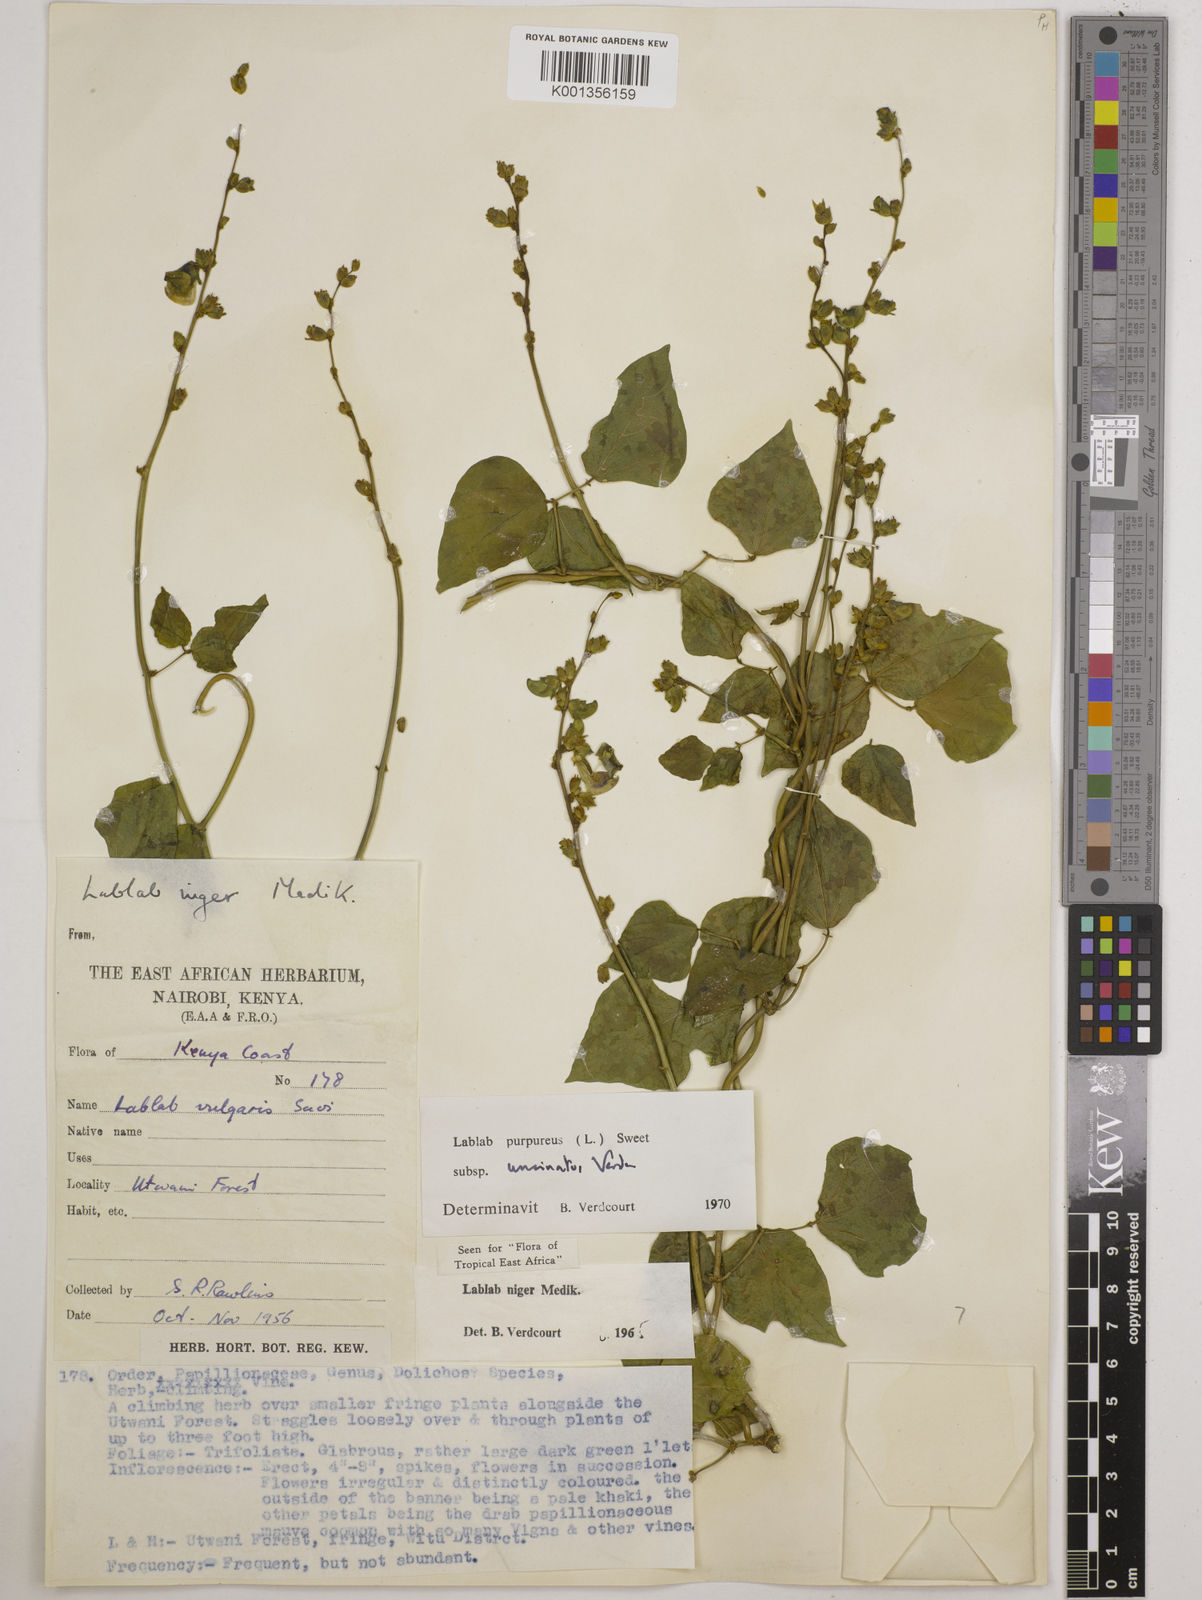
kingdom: Plantae
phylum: Tracheophyta
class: Magnoliopsida
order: Fabales
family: Fabaceae
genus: Lablab
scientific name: Lablab purpureus
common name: Lablab-bean
